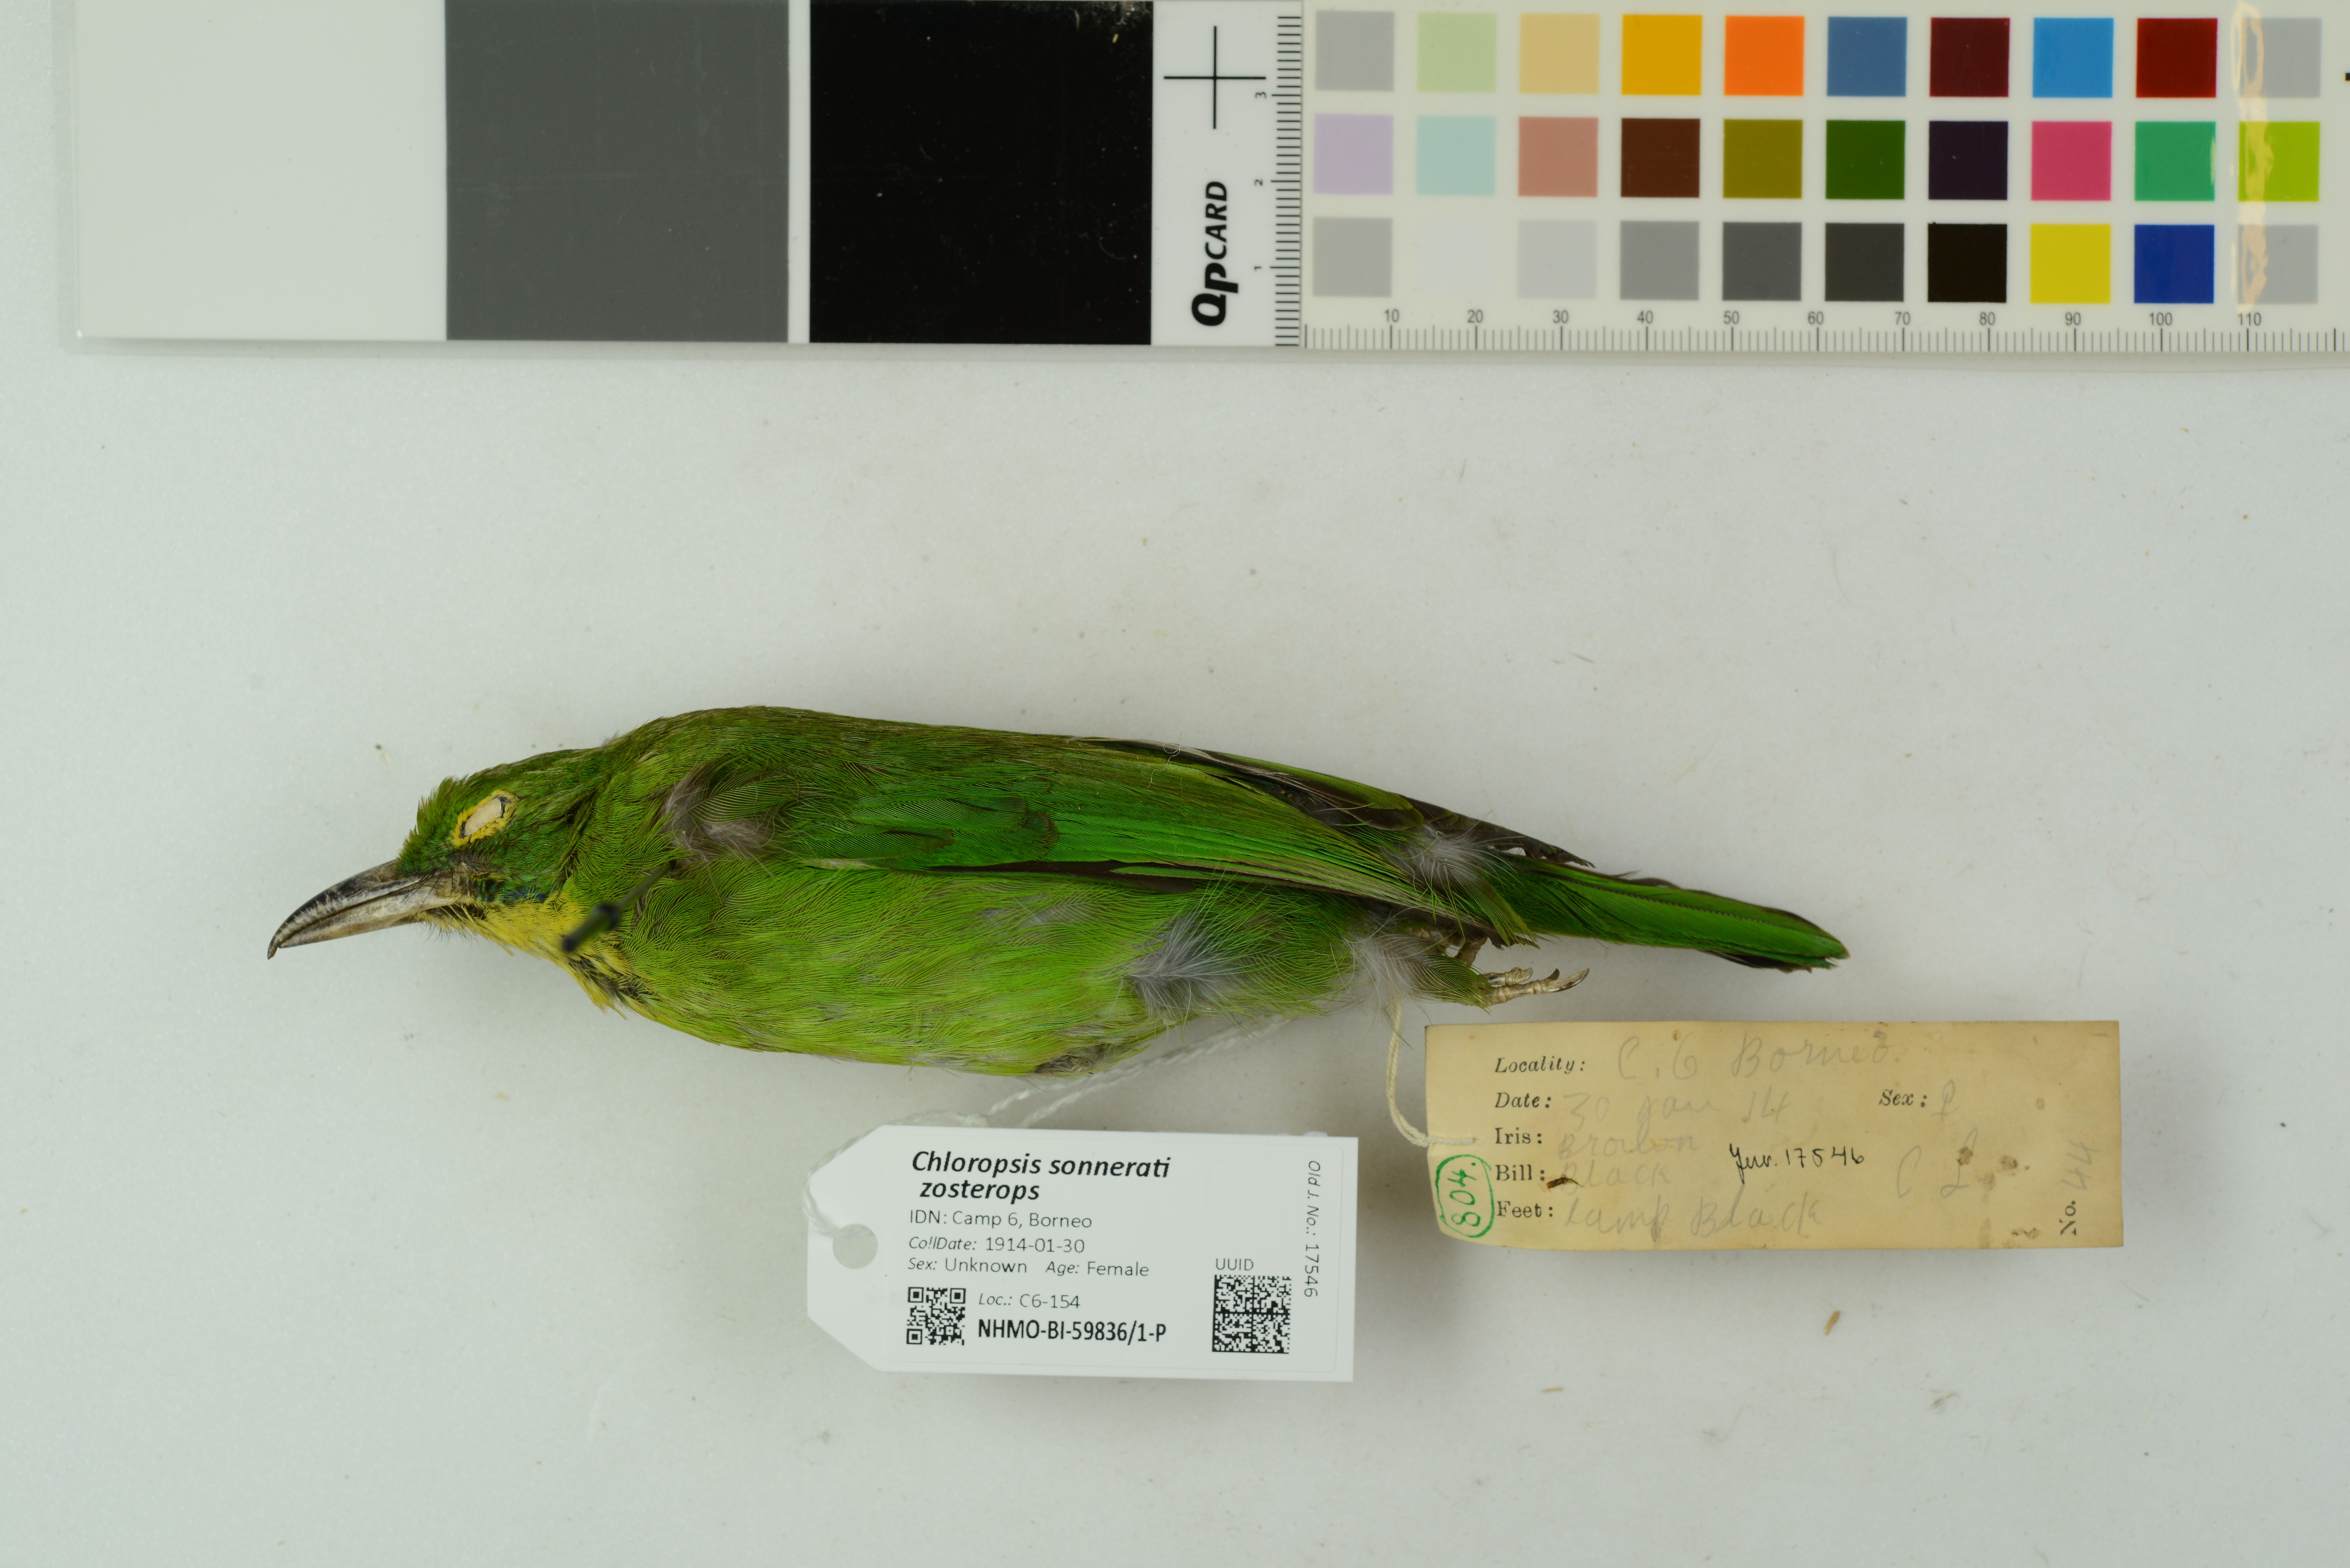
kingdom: Animalia
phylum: Chordata
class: Aves
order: Passeriformes
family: Chloropseidae
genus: Chloropsis
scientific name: Chloropsis sonnerati
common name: Greater green leafbird
